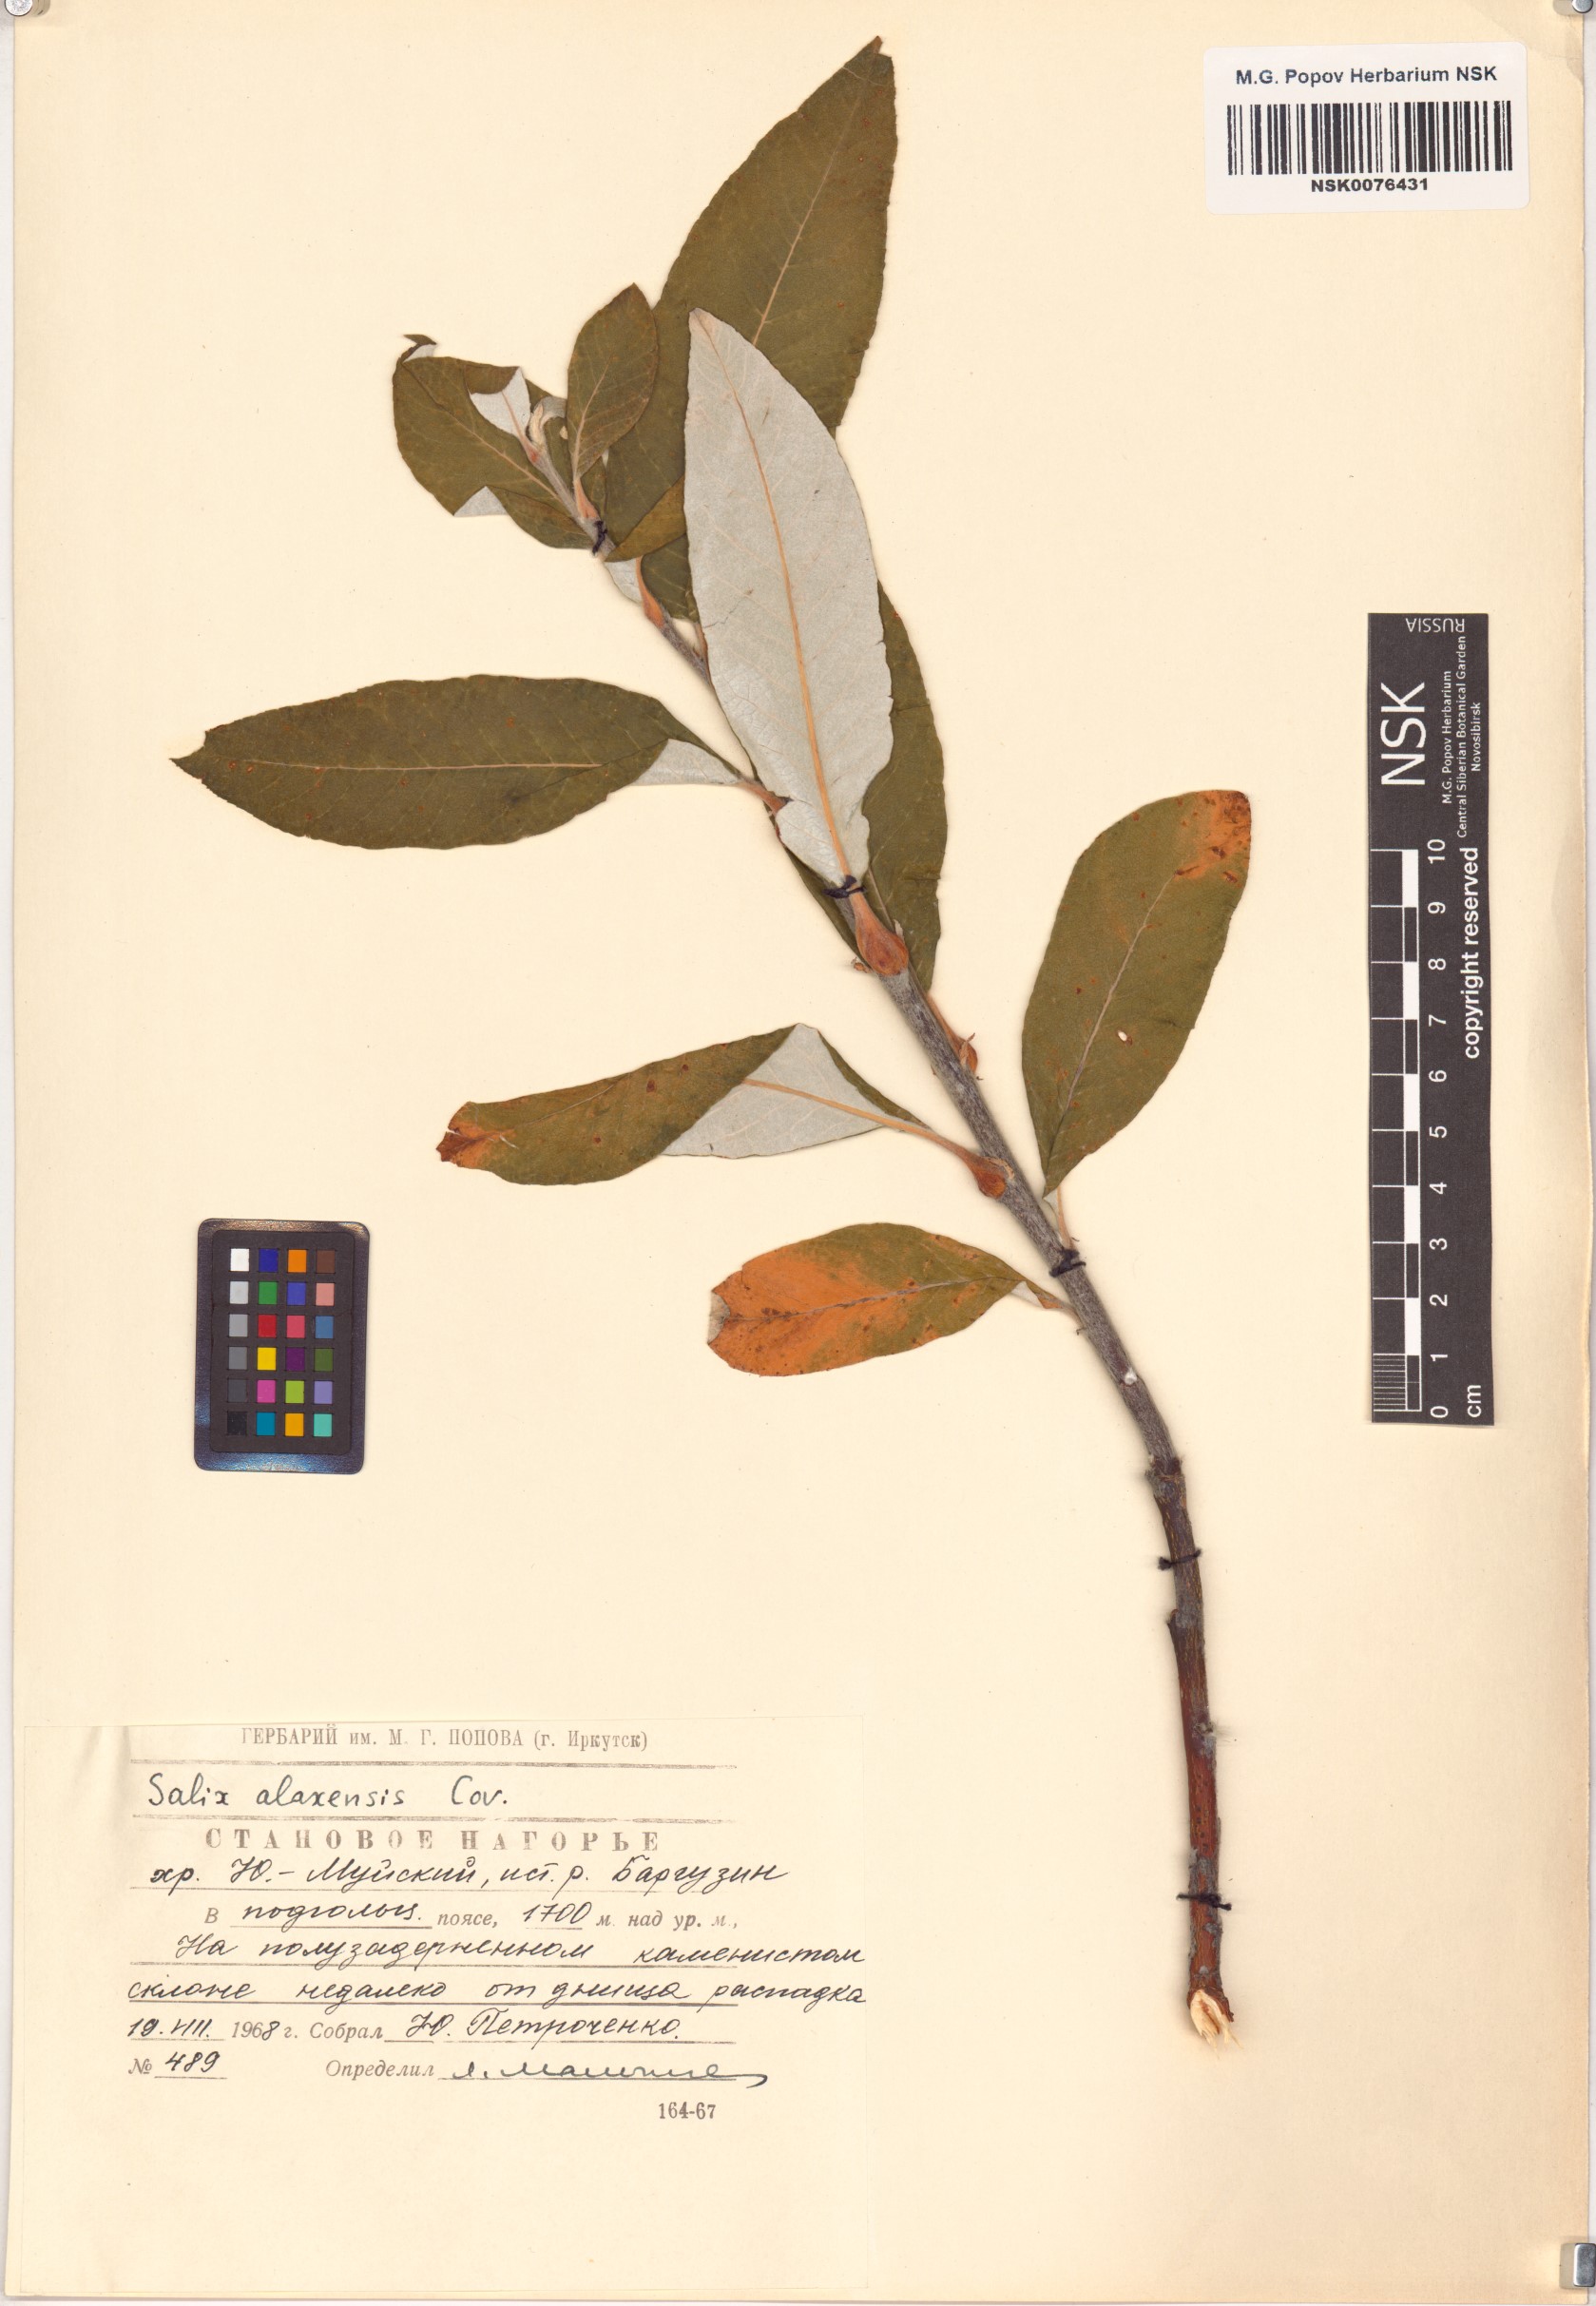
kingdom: Plantae
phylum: Tracheophyta
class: Magnoliopsida
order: Malpighiales
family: Salicaceae
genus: Salix
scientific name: Salix alaxensis
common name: Feltleaf willow
